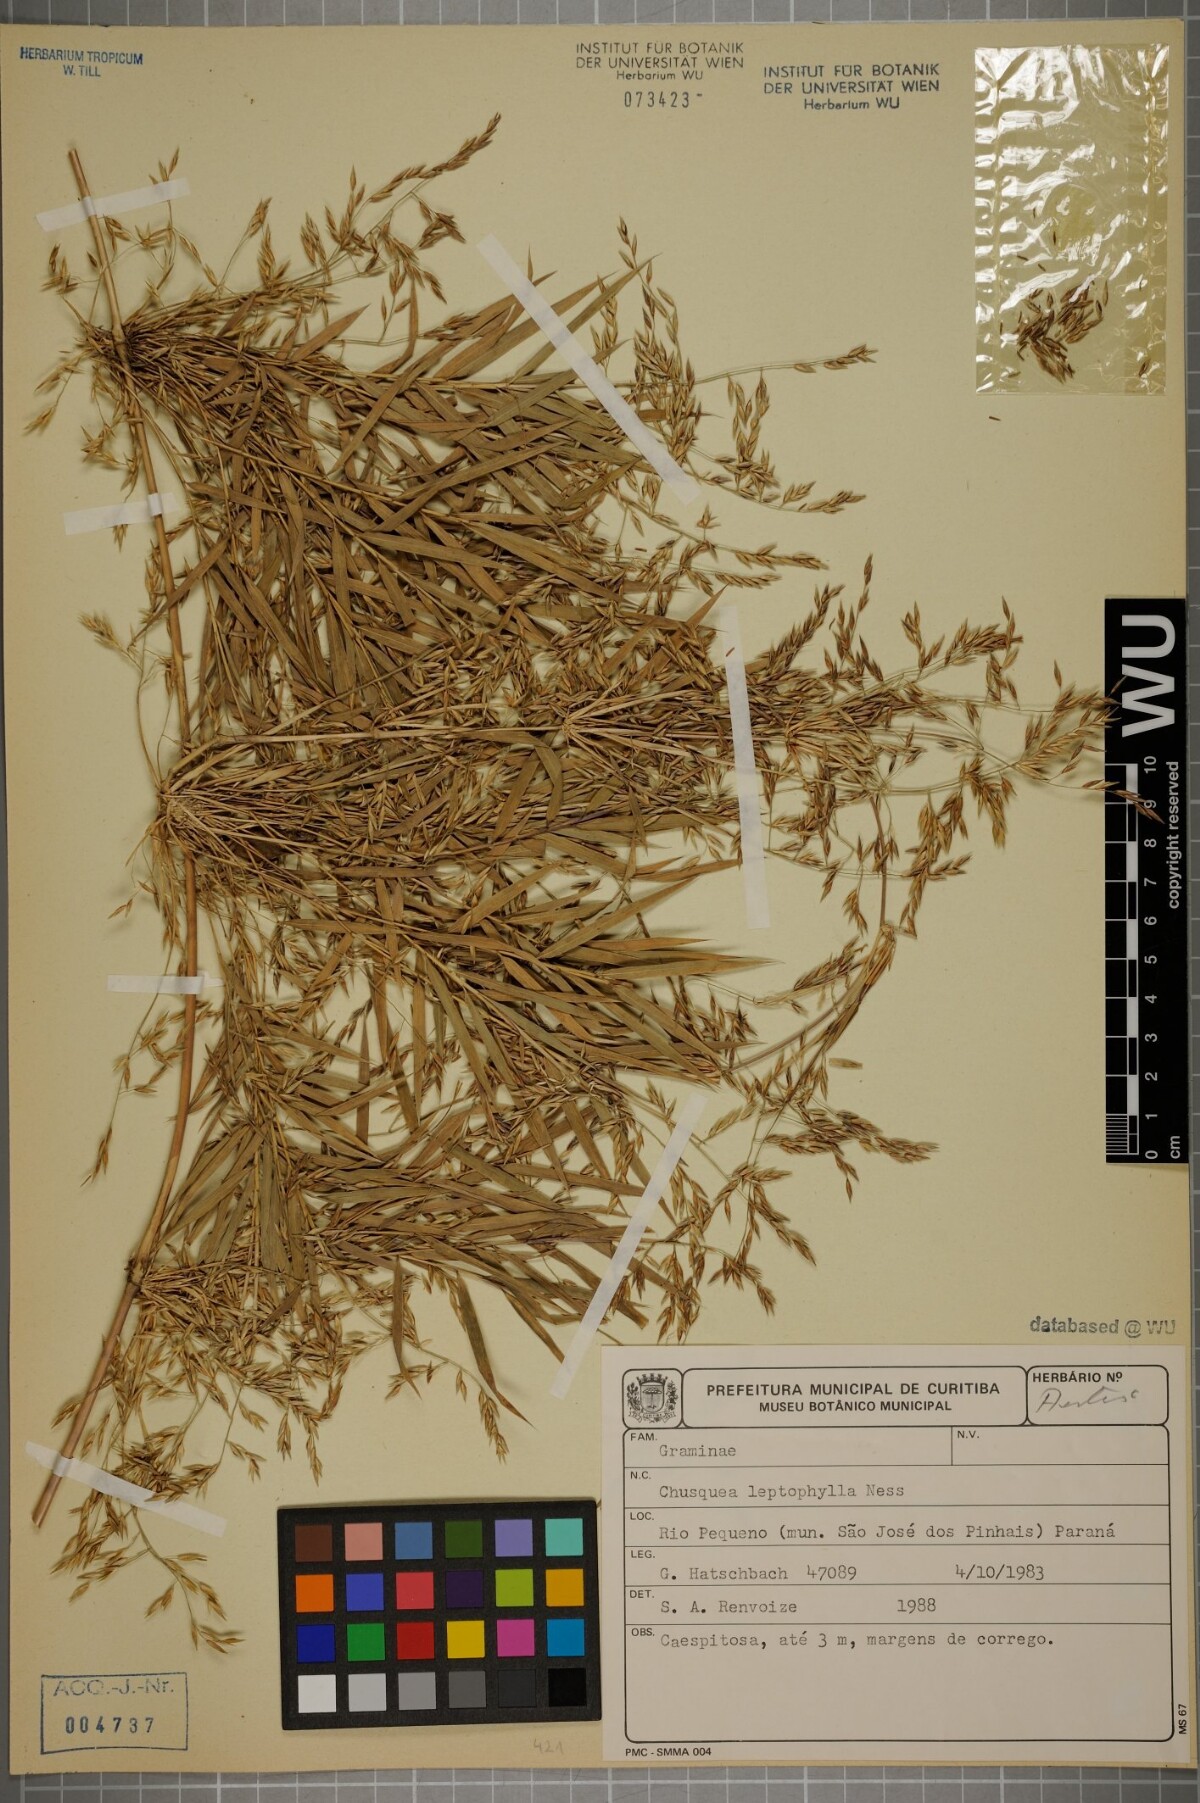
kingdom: Plantae
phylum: Tracheophyta
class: Liliopsida
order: Poales
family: Poaceae
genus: Chusquea
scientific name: Chusquea leptophylla
